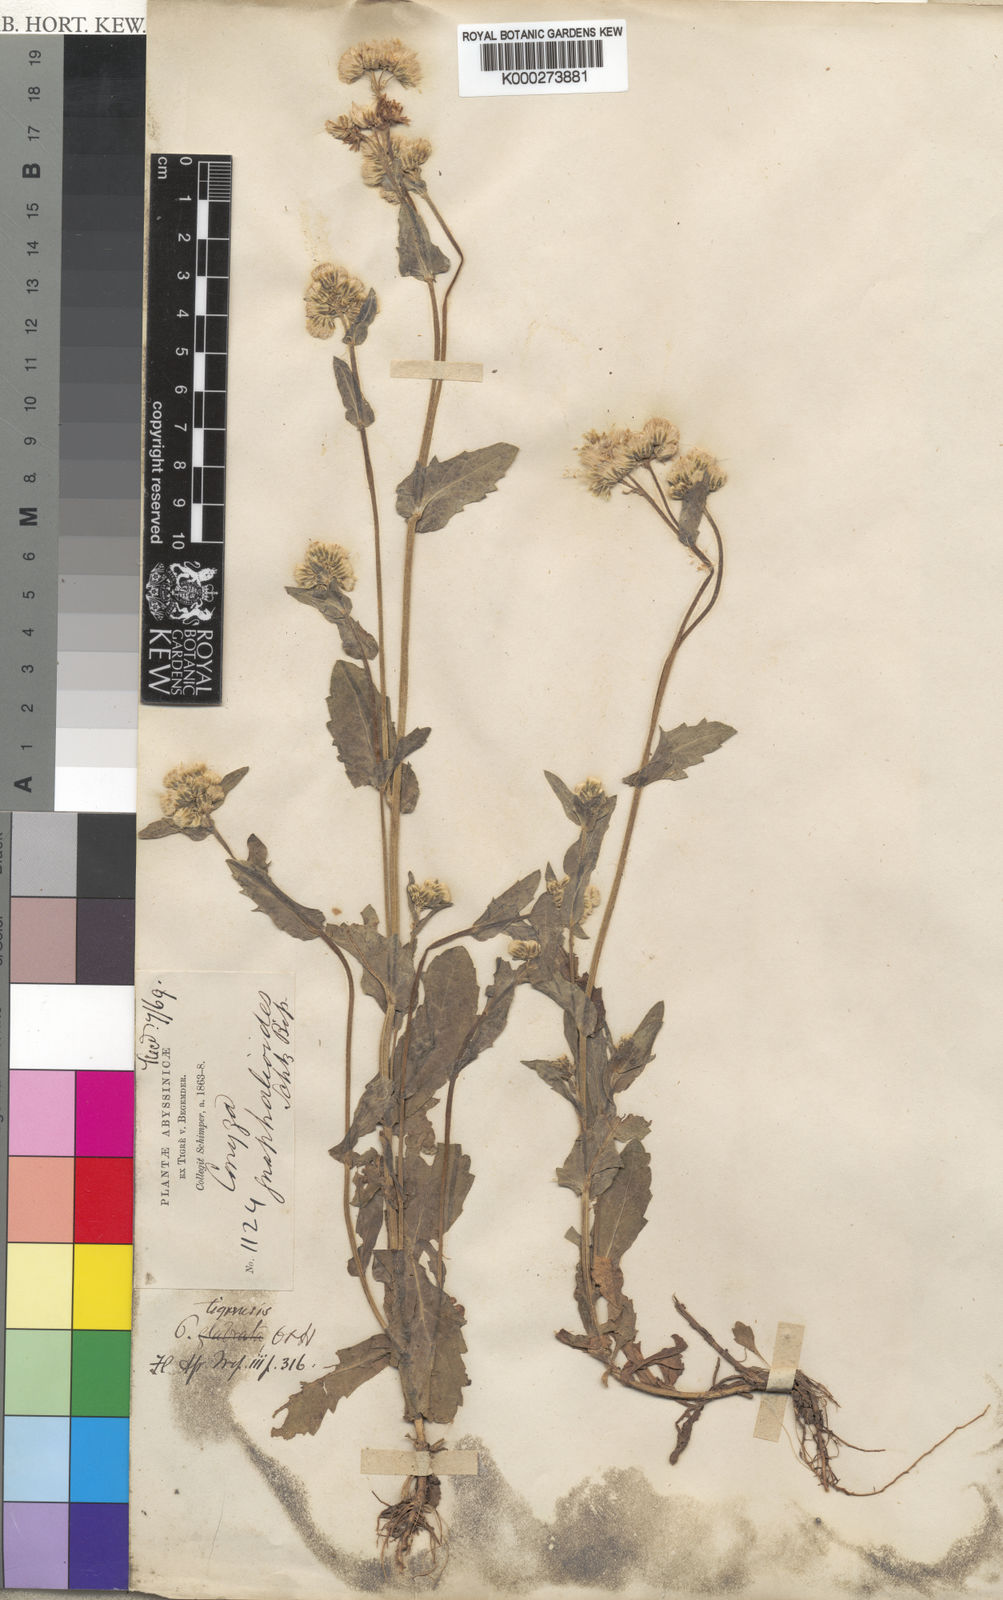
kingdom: Plantae
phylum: Tracheophyta
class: Magnoliopsida
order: Asterales
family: Asteraceae
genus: Eschenbachia
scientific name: Eschenbachia tigrensis
